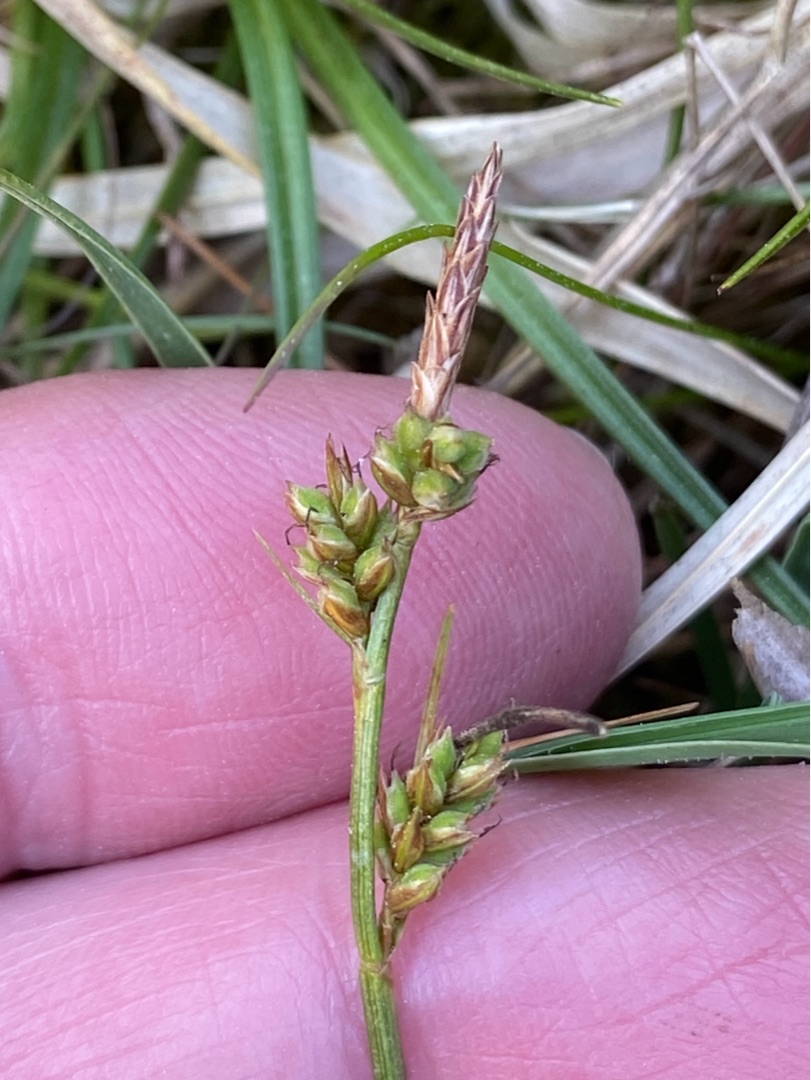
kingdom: Plantae
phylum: Tracheophyta
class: Liliopsida
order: Poales
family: Cyperaceae
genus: Carex
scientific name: Carex pilulifera
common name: Pille-star
